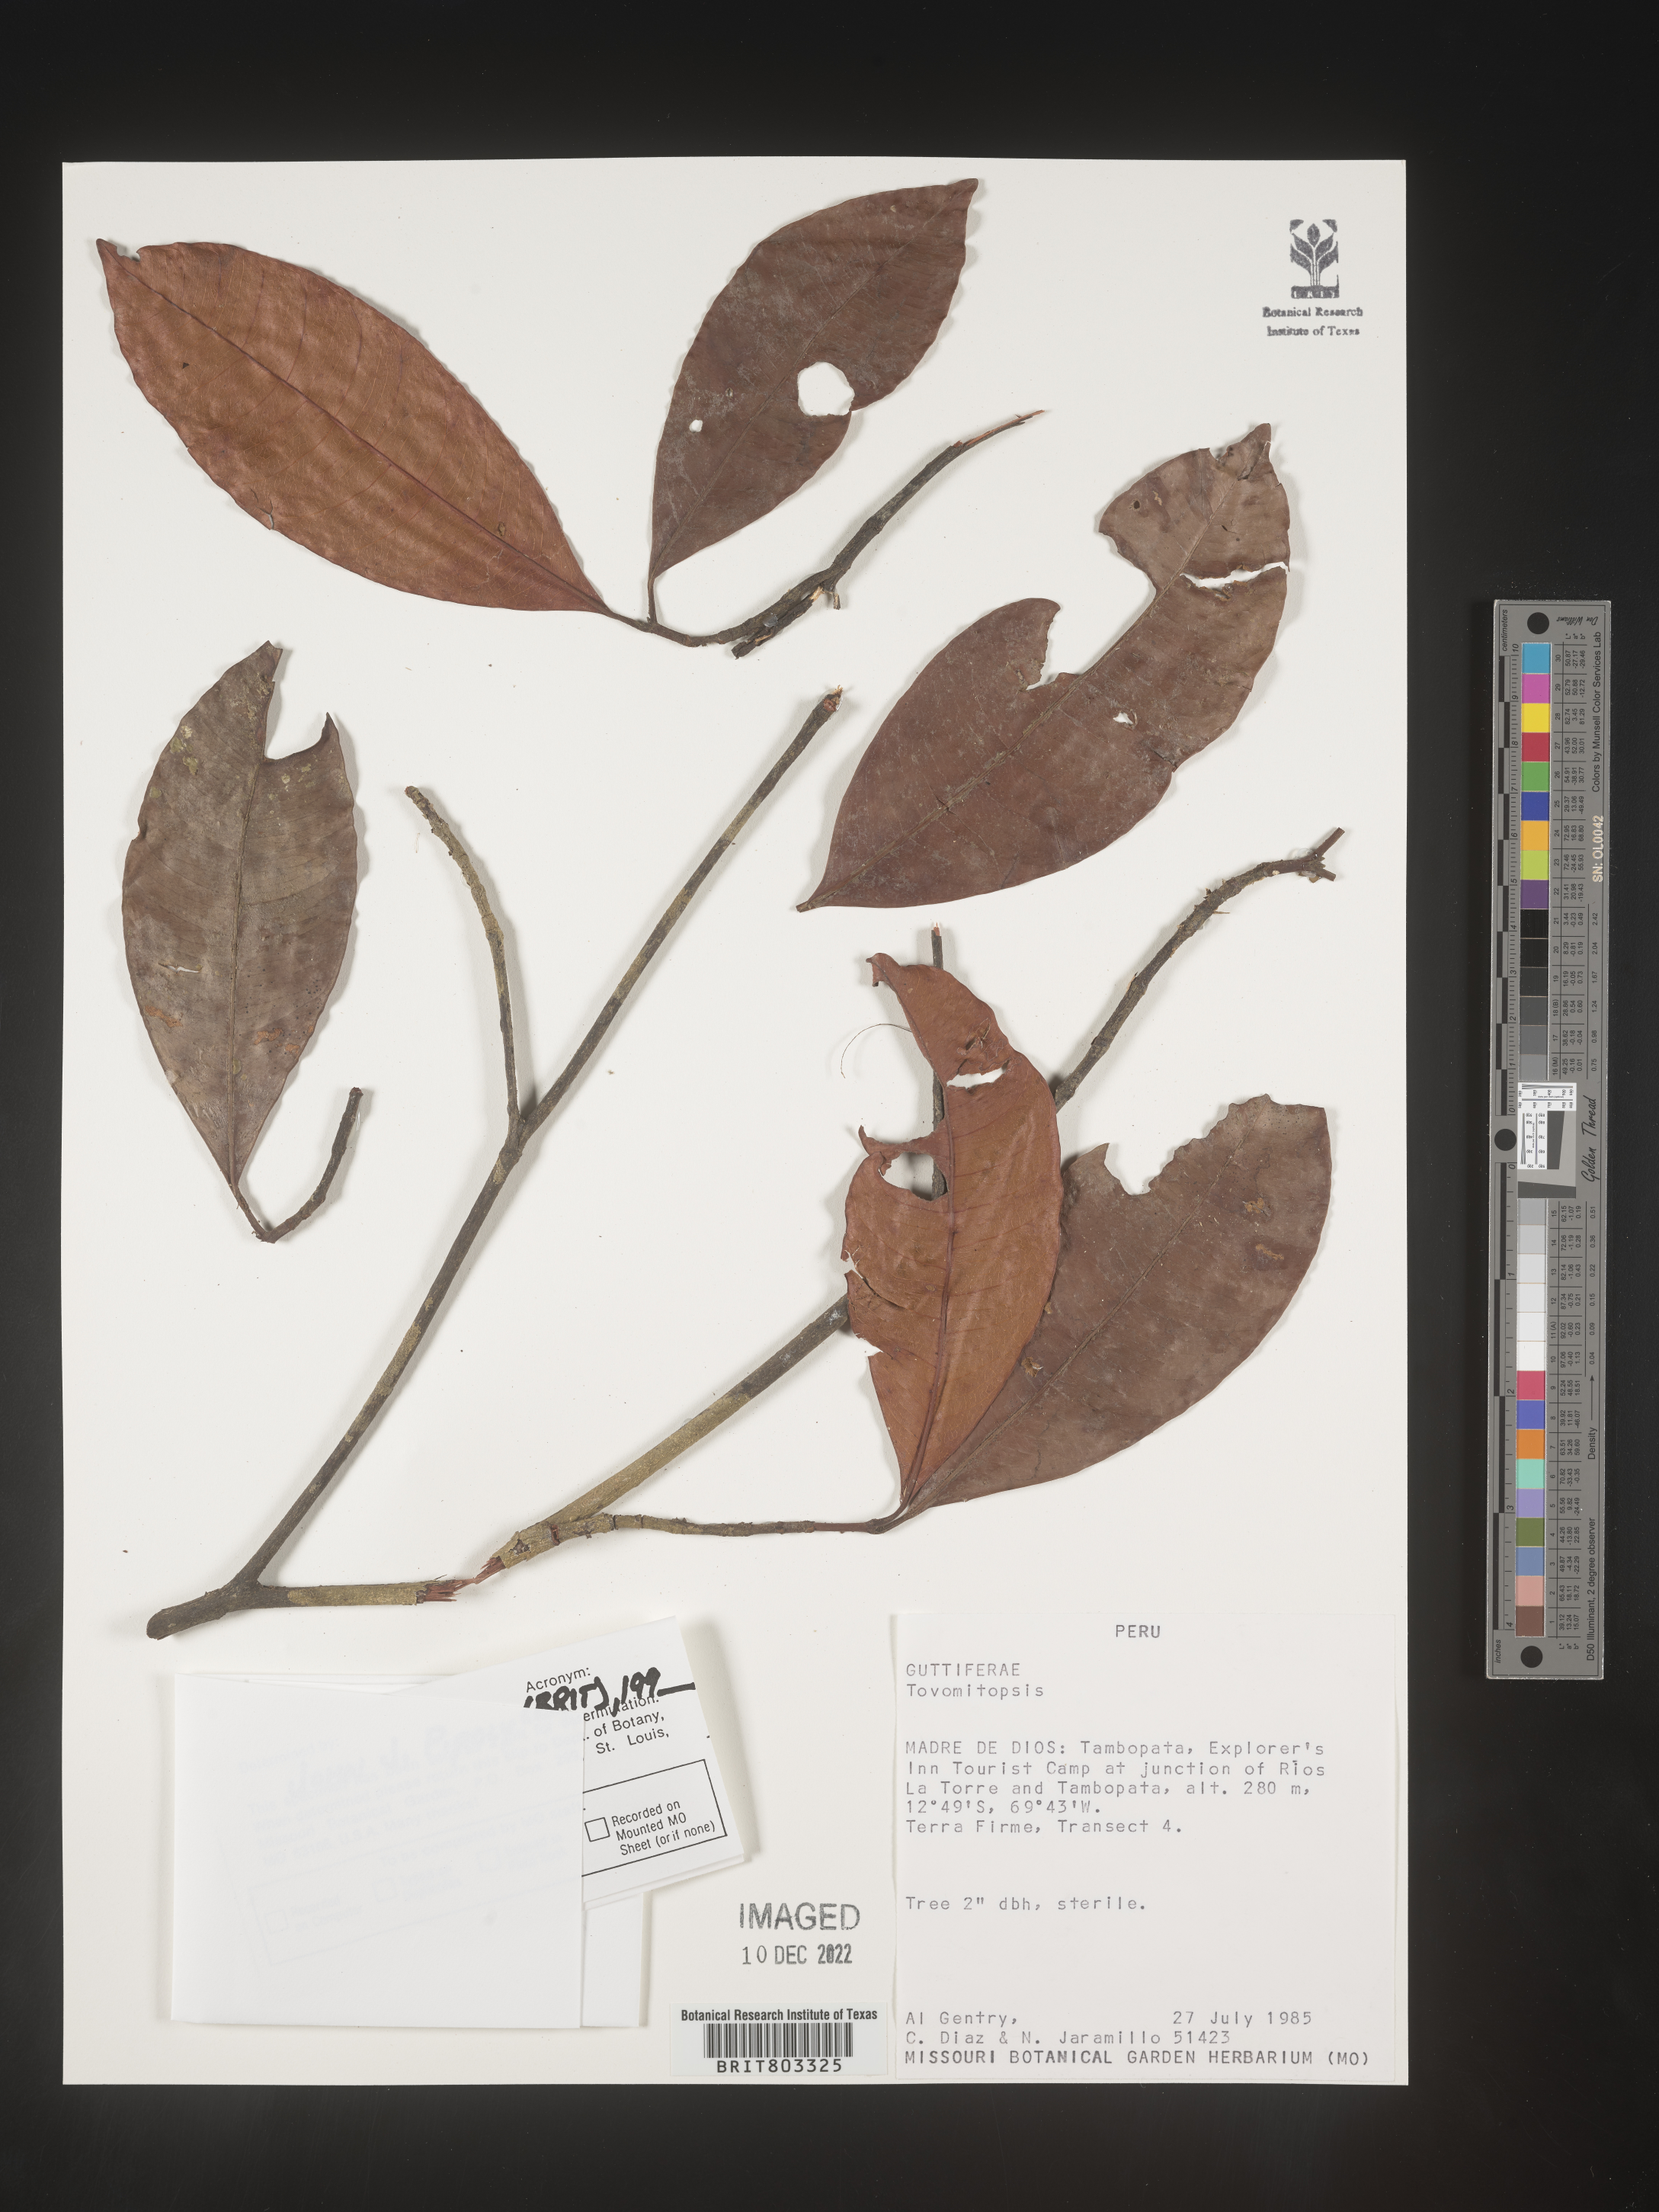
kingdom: Plantae
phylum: Tracheophyta
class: Magnoliopsida
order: Malpighiales
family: Clusiaceae
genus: Tovomita
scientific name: Tovomita
